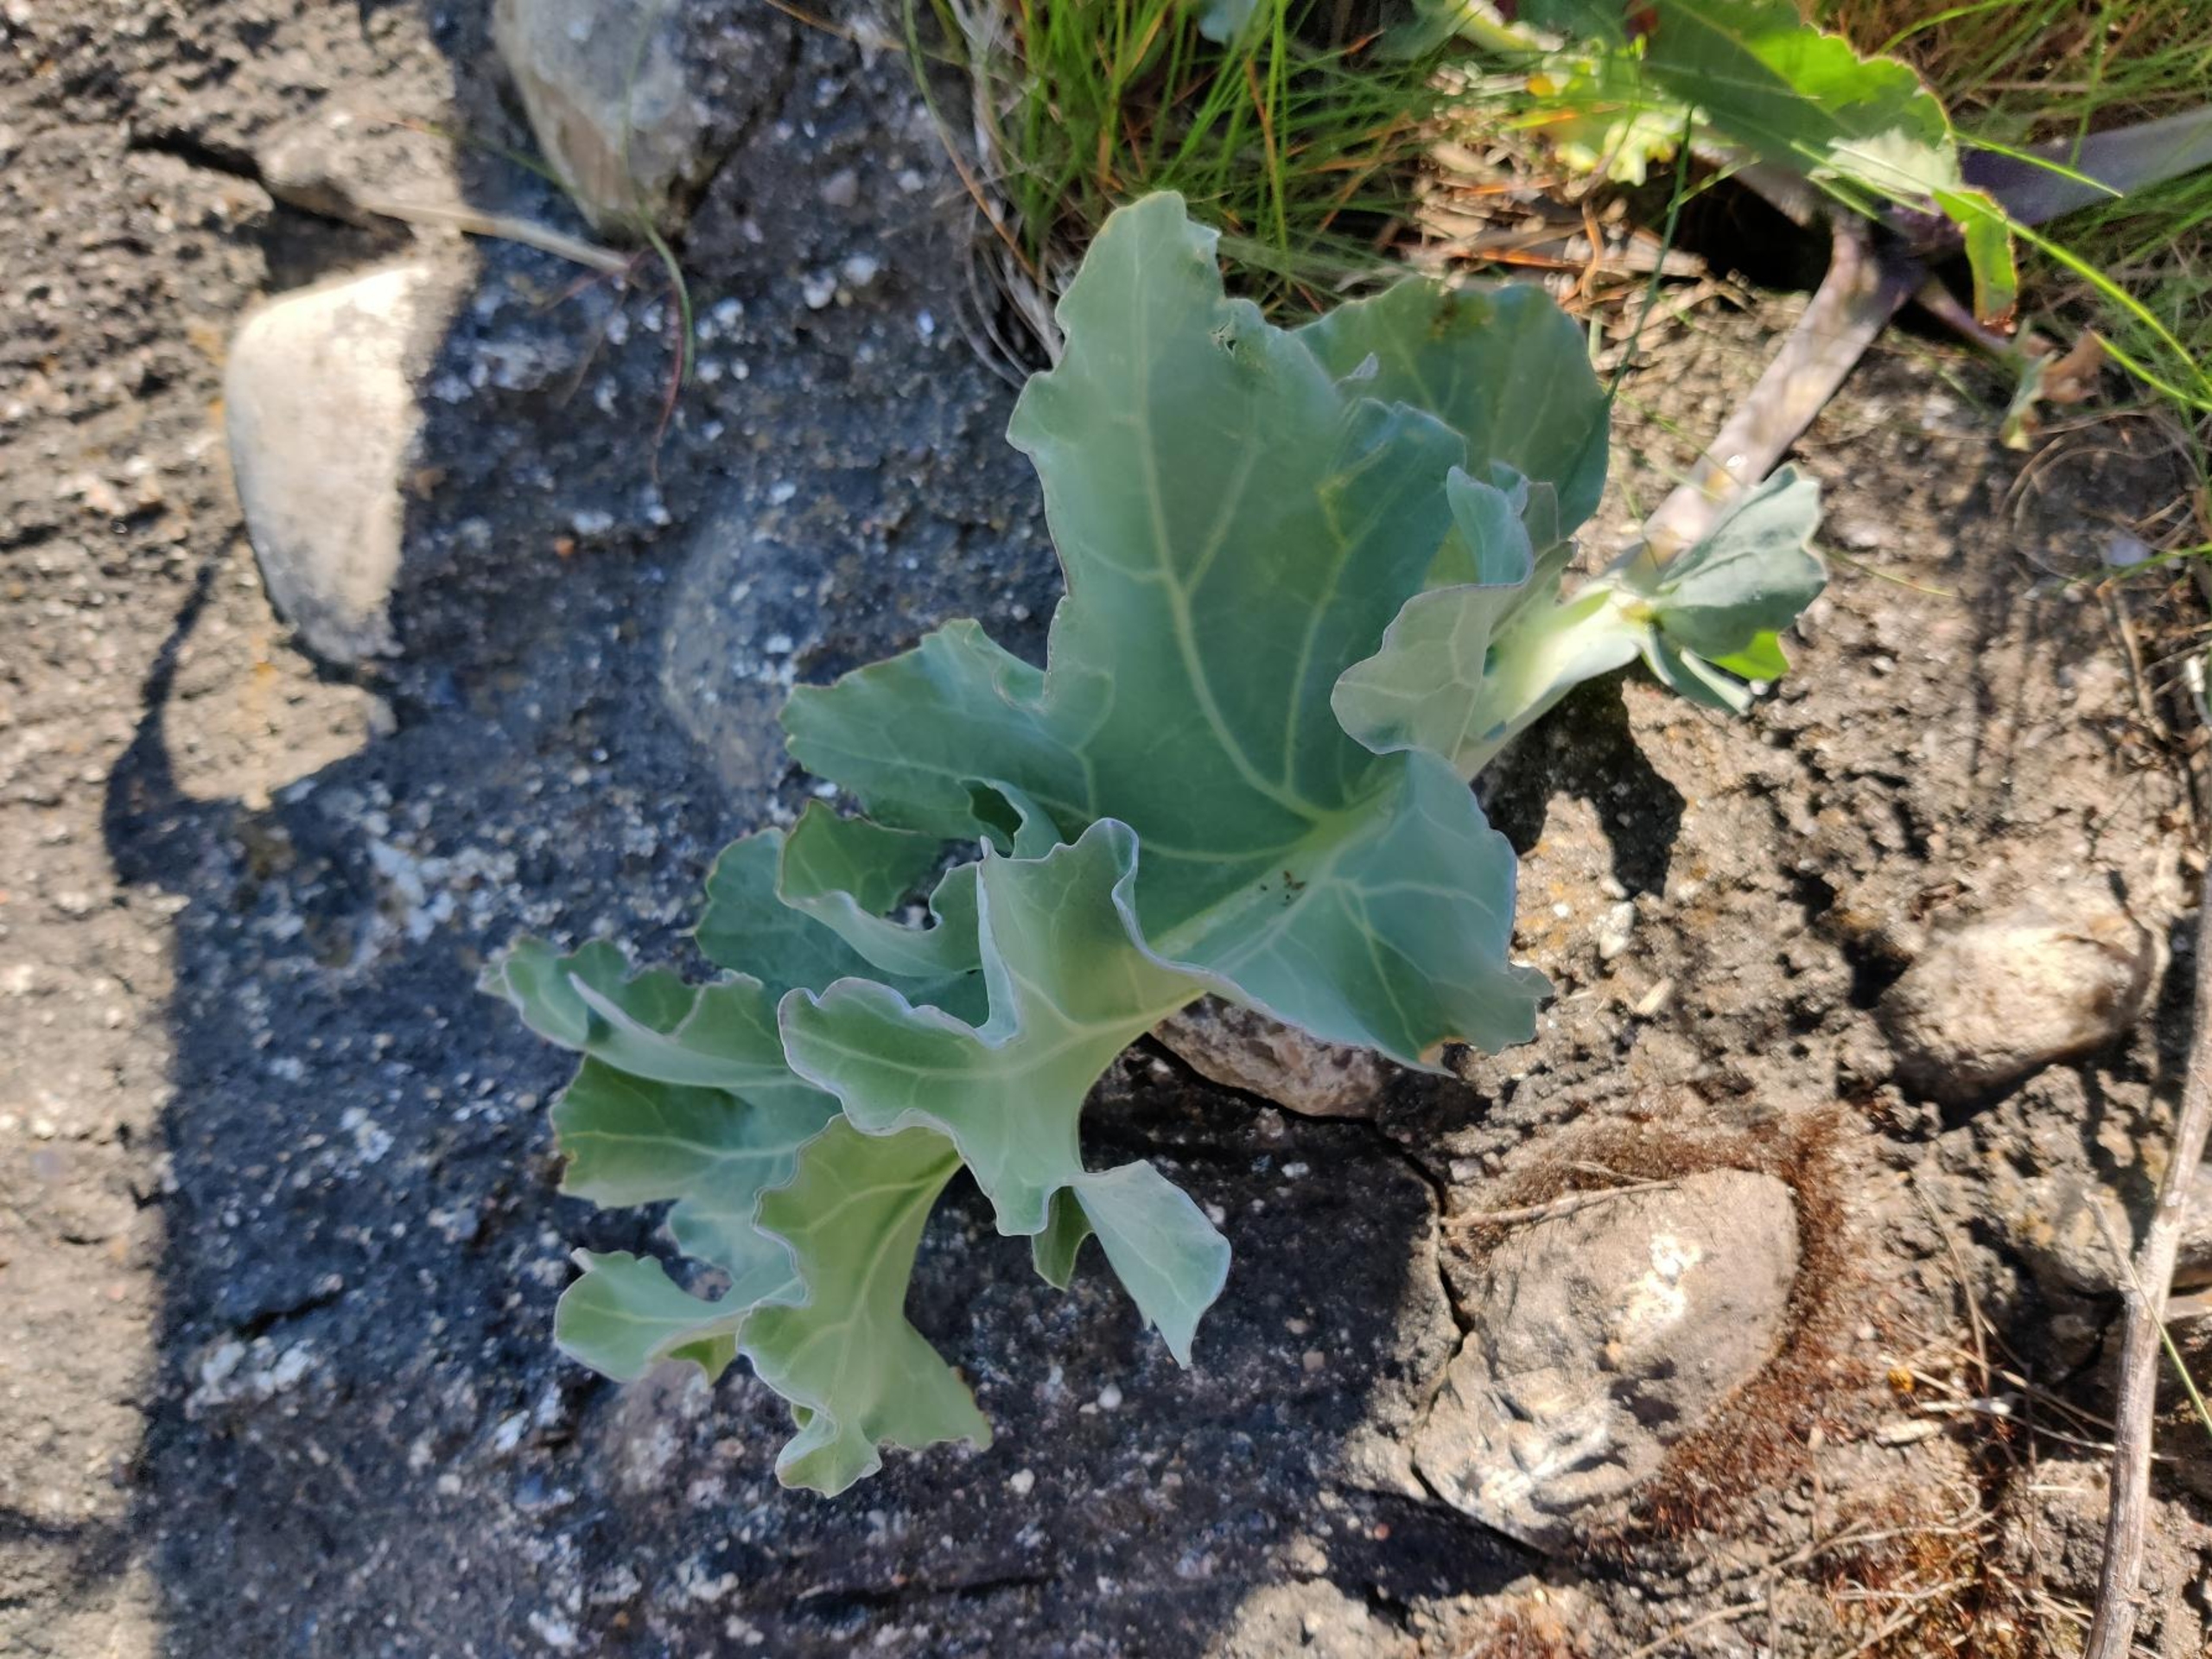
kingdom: Plantae
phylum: Tracheophyta
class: Magnoliopsida
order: Brassicales
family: Brassicaceae
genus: Crambe
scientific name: Crambe maritima
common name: Strandkål
